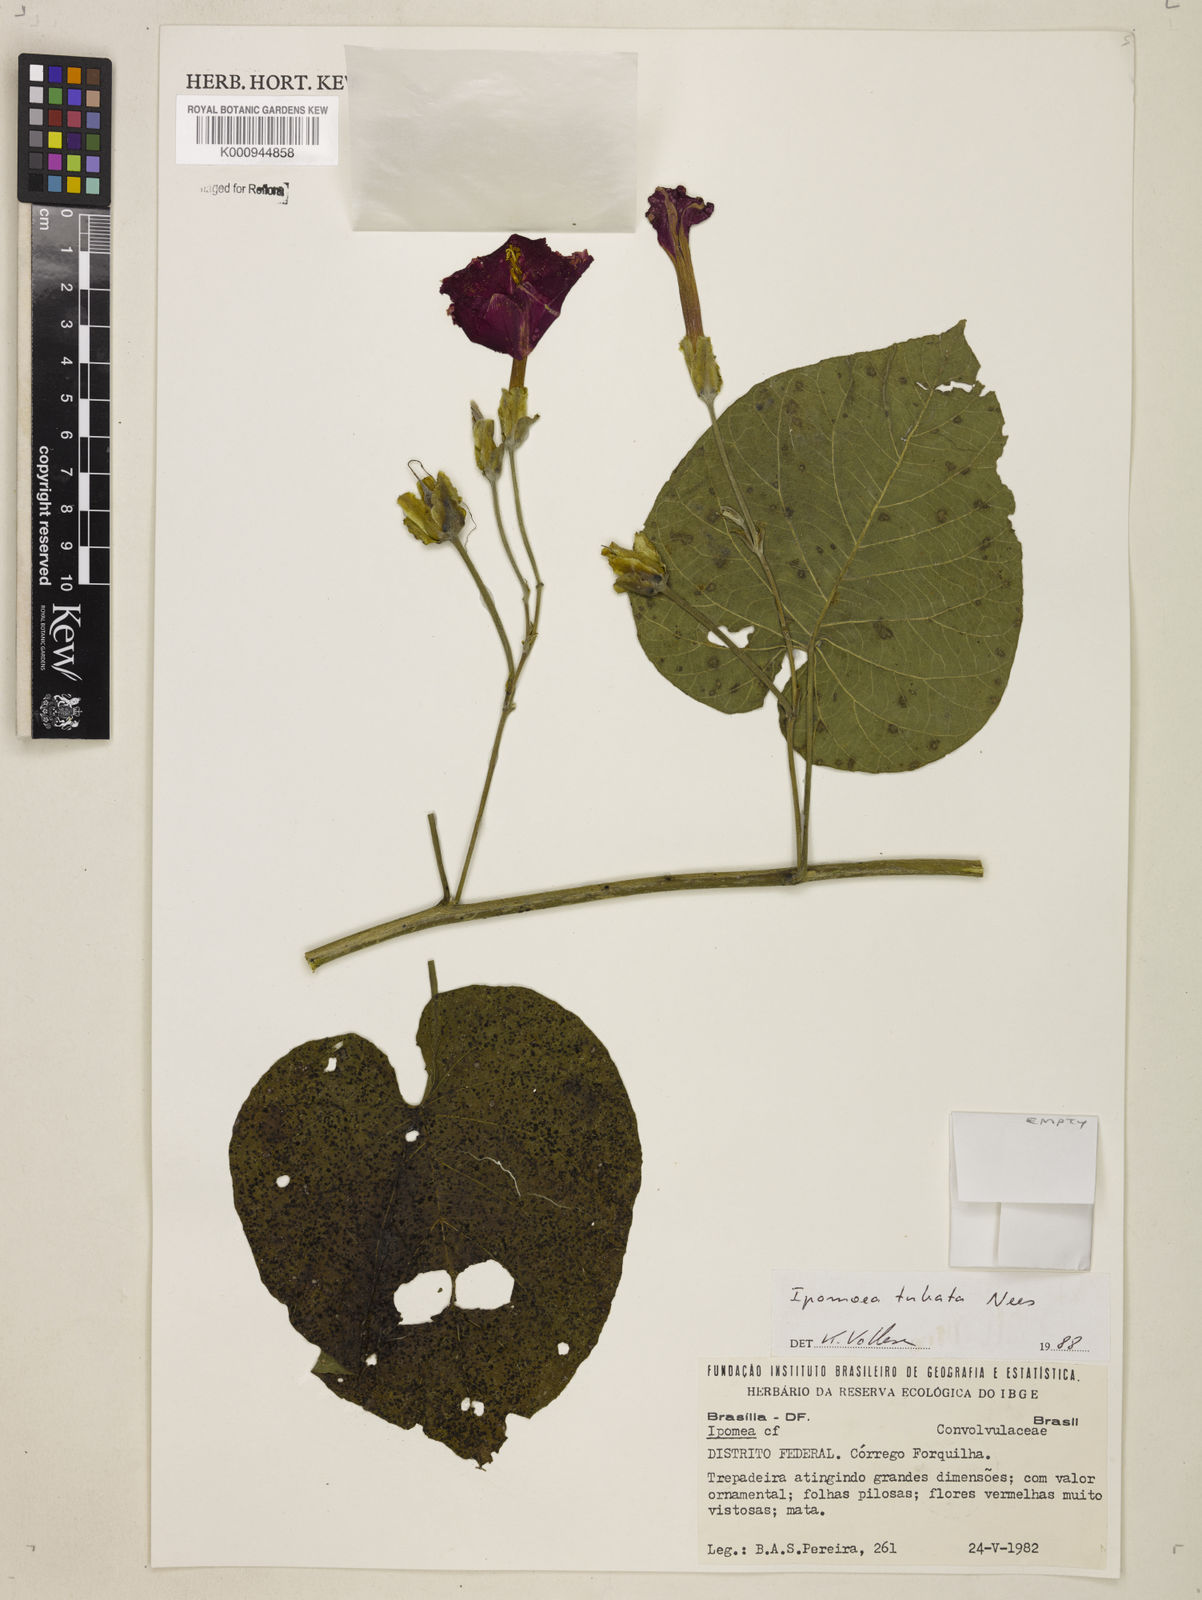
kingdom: Plantae
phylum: Tracheophyta
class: Magnoliopsida
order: Solanales
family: Convolvulaceae
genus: Ipomoea
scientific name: Ipomoea sidifolia
